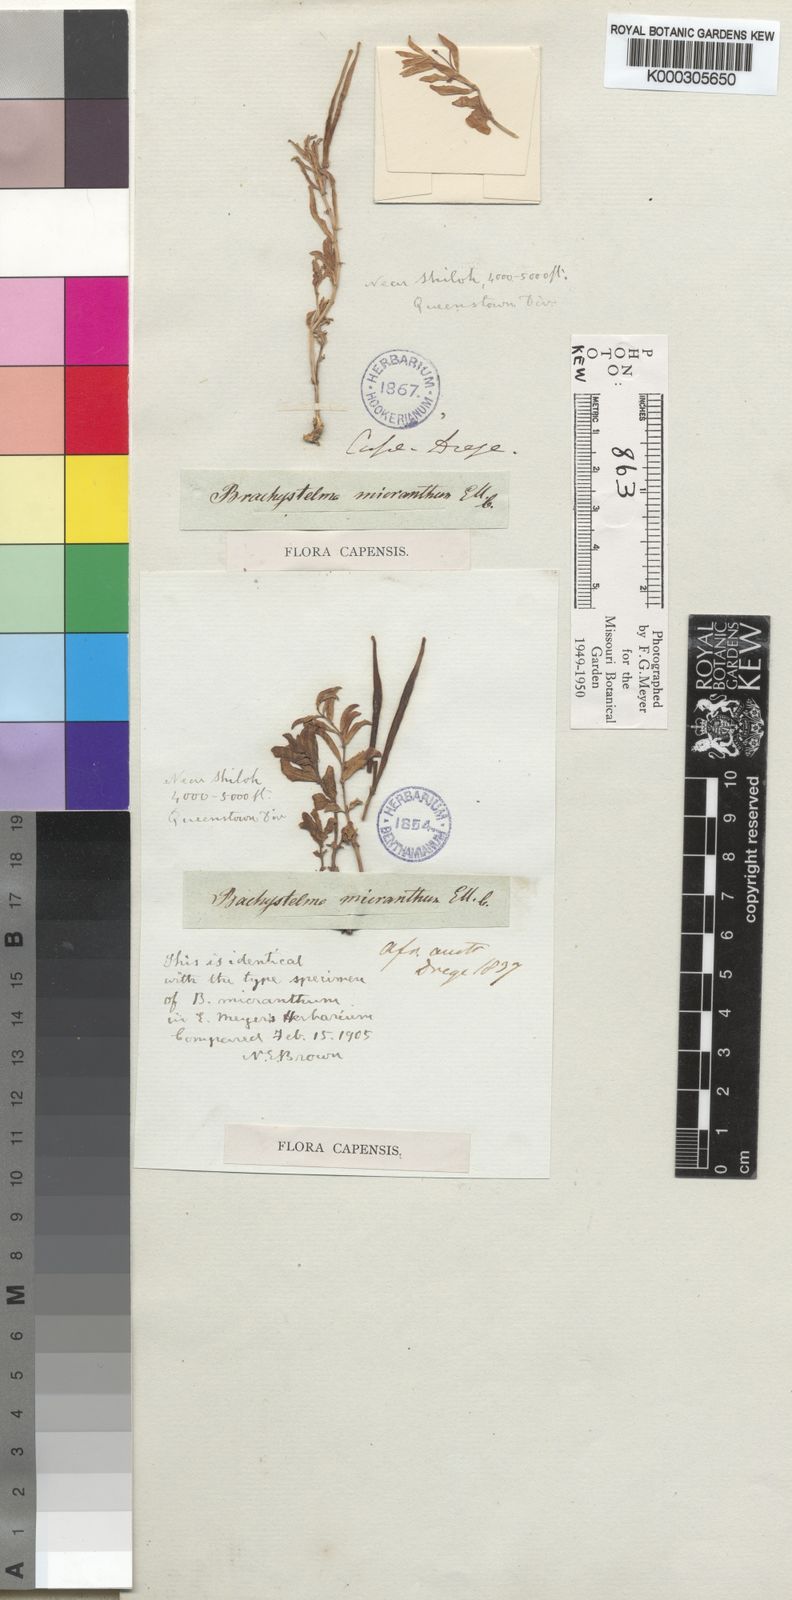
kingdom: Plantae
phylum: Tracheophyta
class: Magnoliopsida
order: Gentianales
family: Apocynaceae
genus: Ceropegia
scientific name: Ceropegia micriflora
